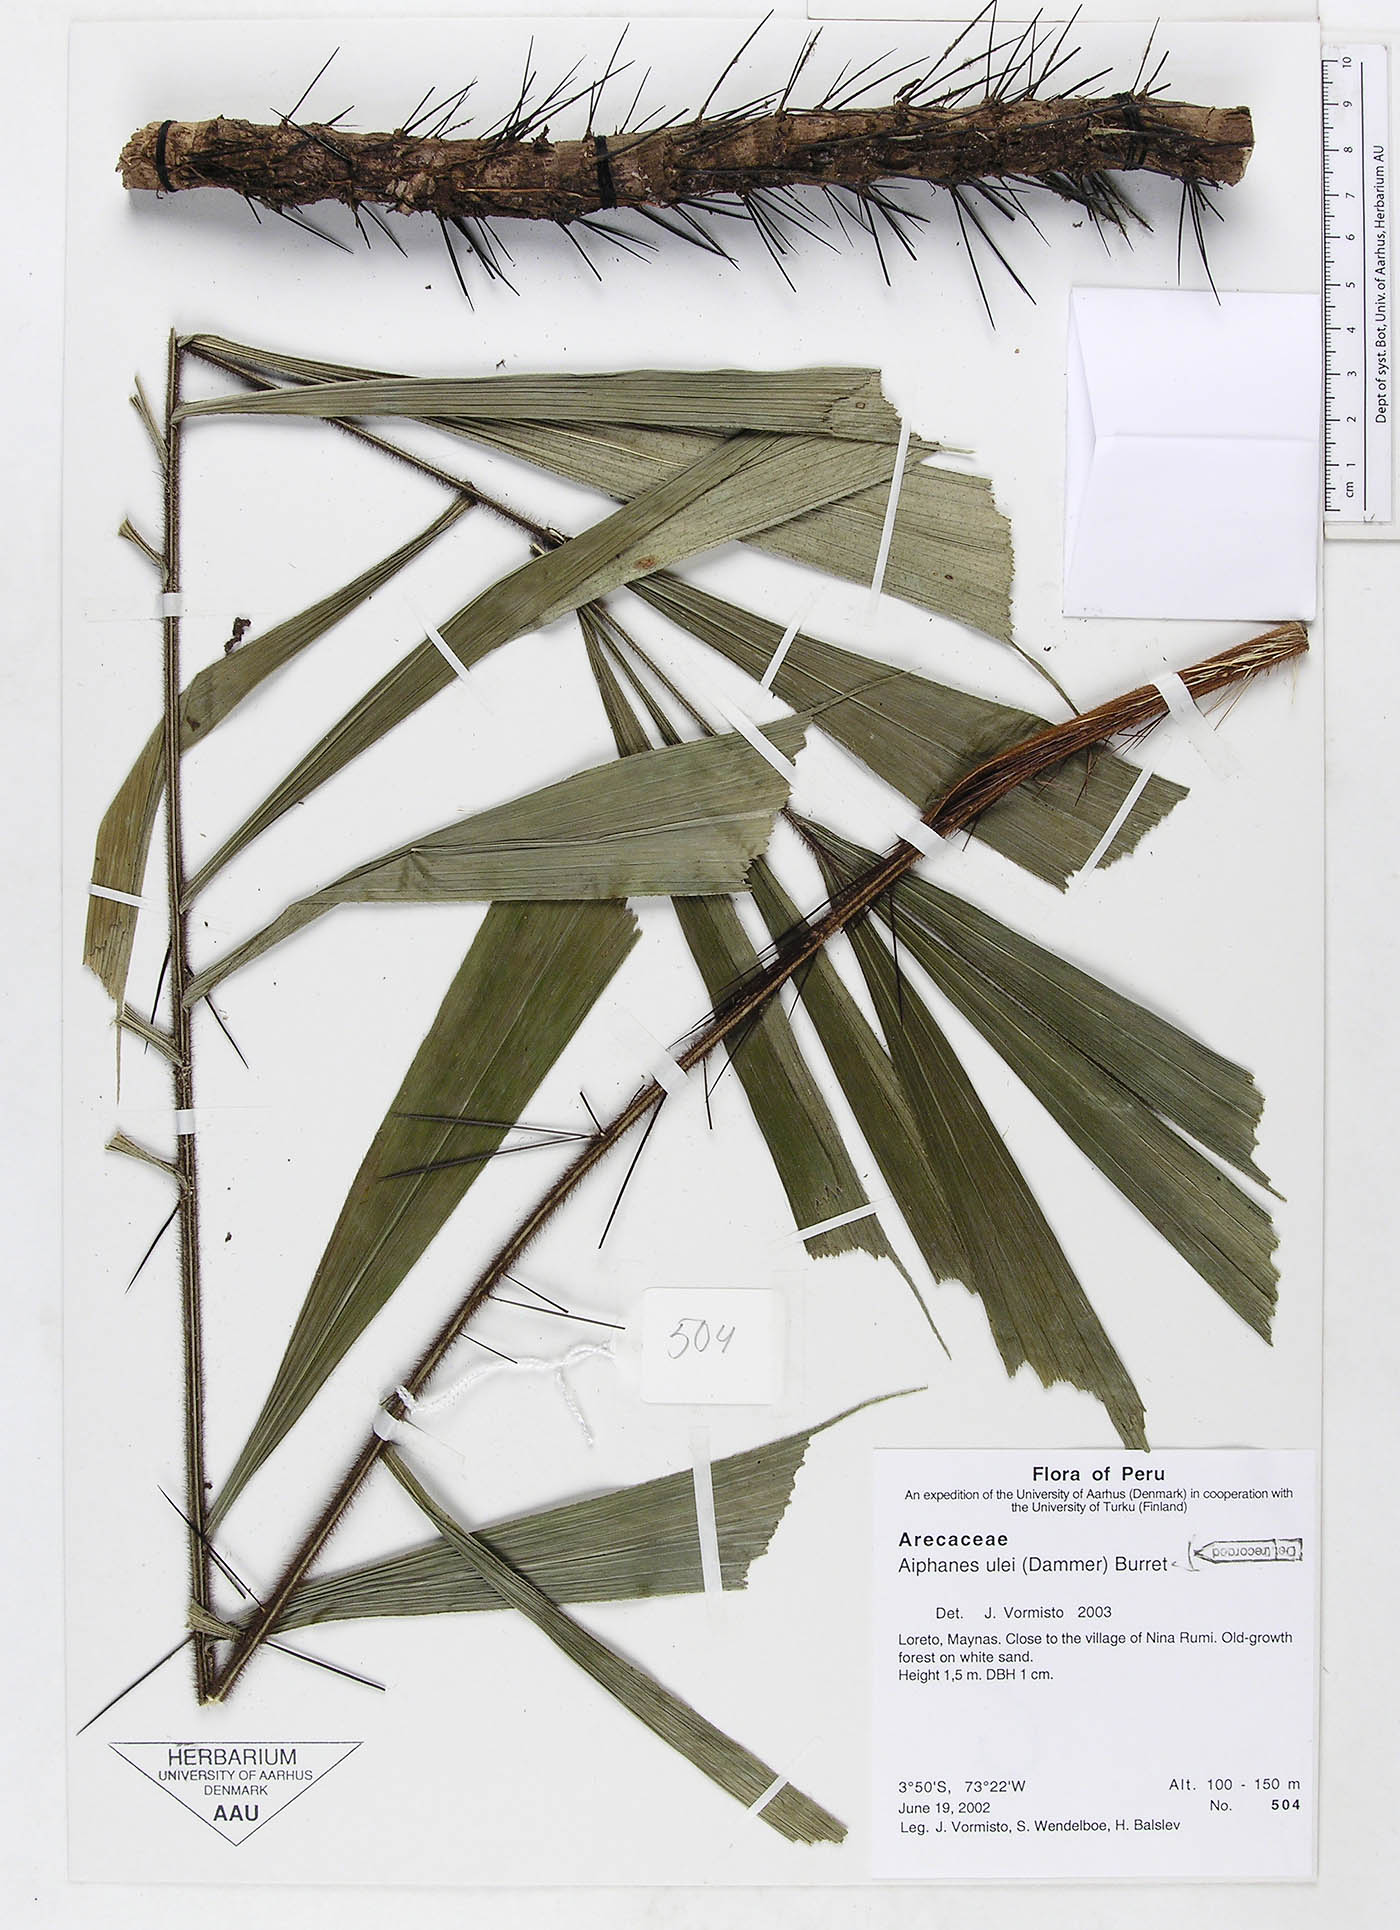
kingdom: Plantae
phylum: Tracheophyta
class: Liliopsida
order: Arecales
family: Arecaceae
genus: Aiphanes
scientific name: Aiphanes ulei
